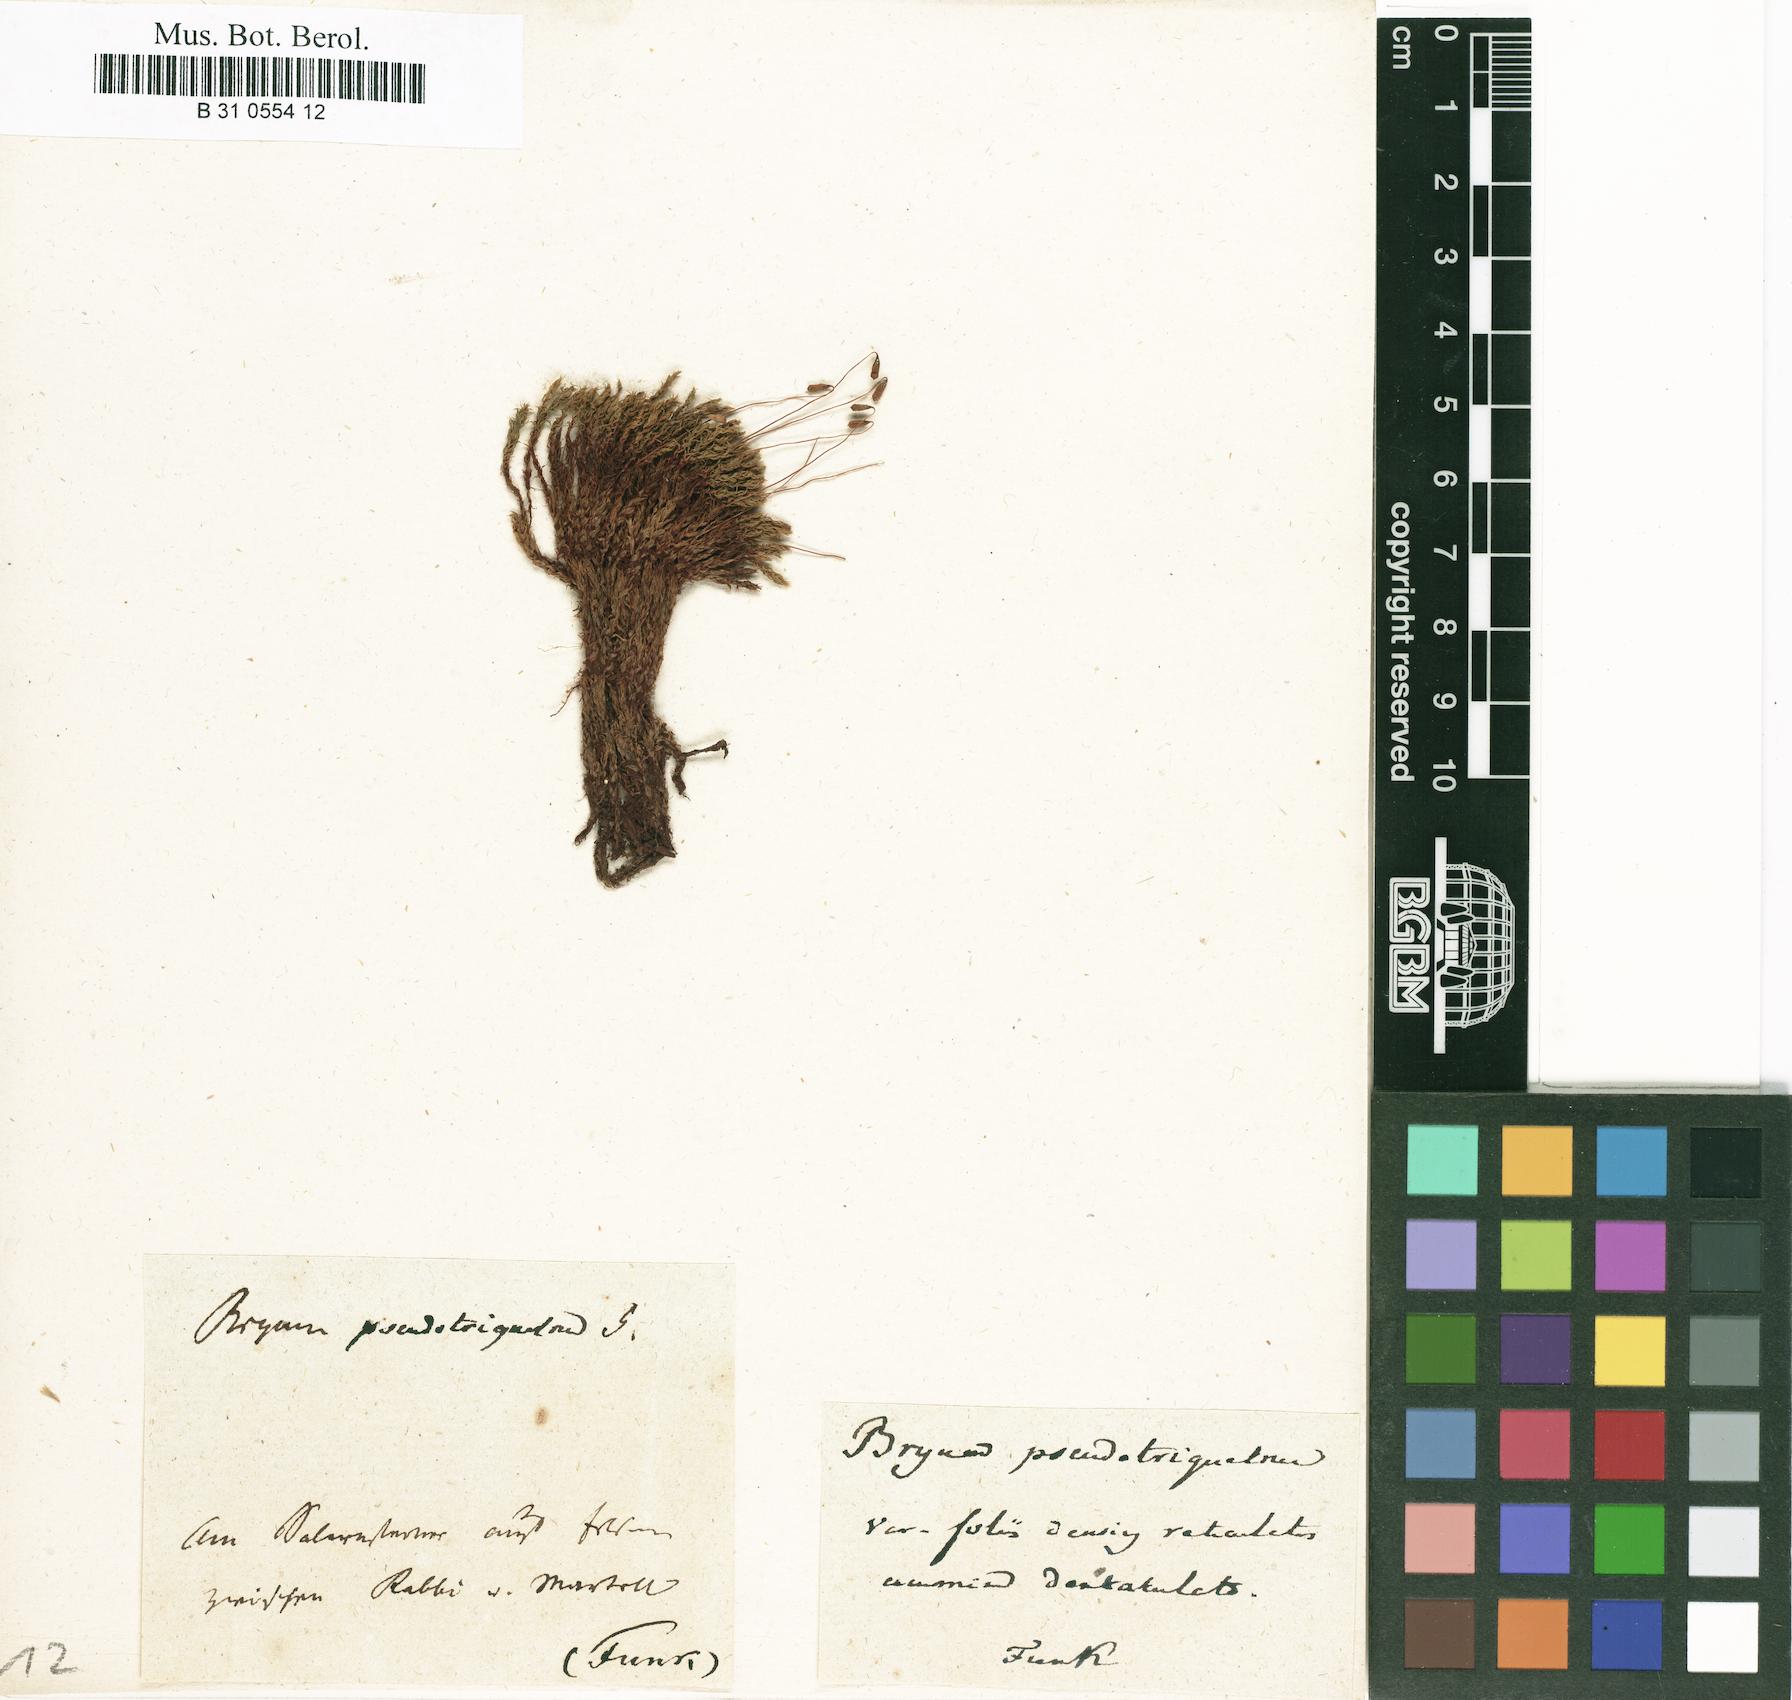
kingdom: Plantae
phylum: Bryophyta
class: Bryopsida
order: Bryales
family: Bryaceae
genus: Ptychostomum
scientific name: Ptychostomum pseudotriquetrum
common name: Long-leaved thread moss
